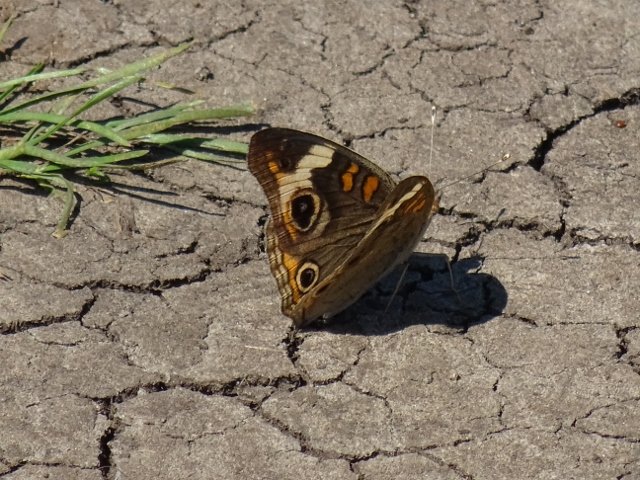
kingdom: Animalia
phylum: Arthropoda
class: Insecta
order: Lepidoptera
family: Nymphalidae
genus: Junonia
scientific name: Junonia coenia
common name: Common Buckeye
